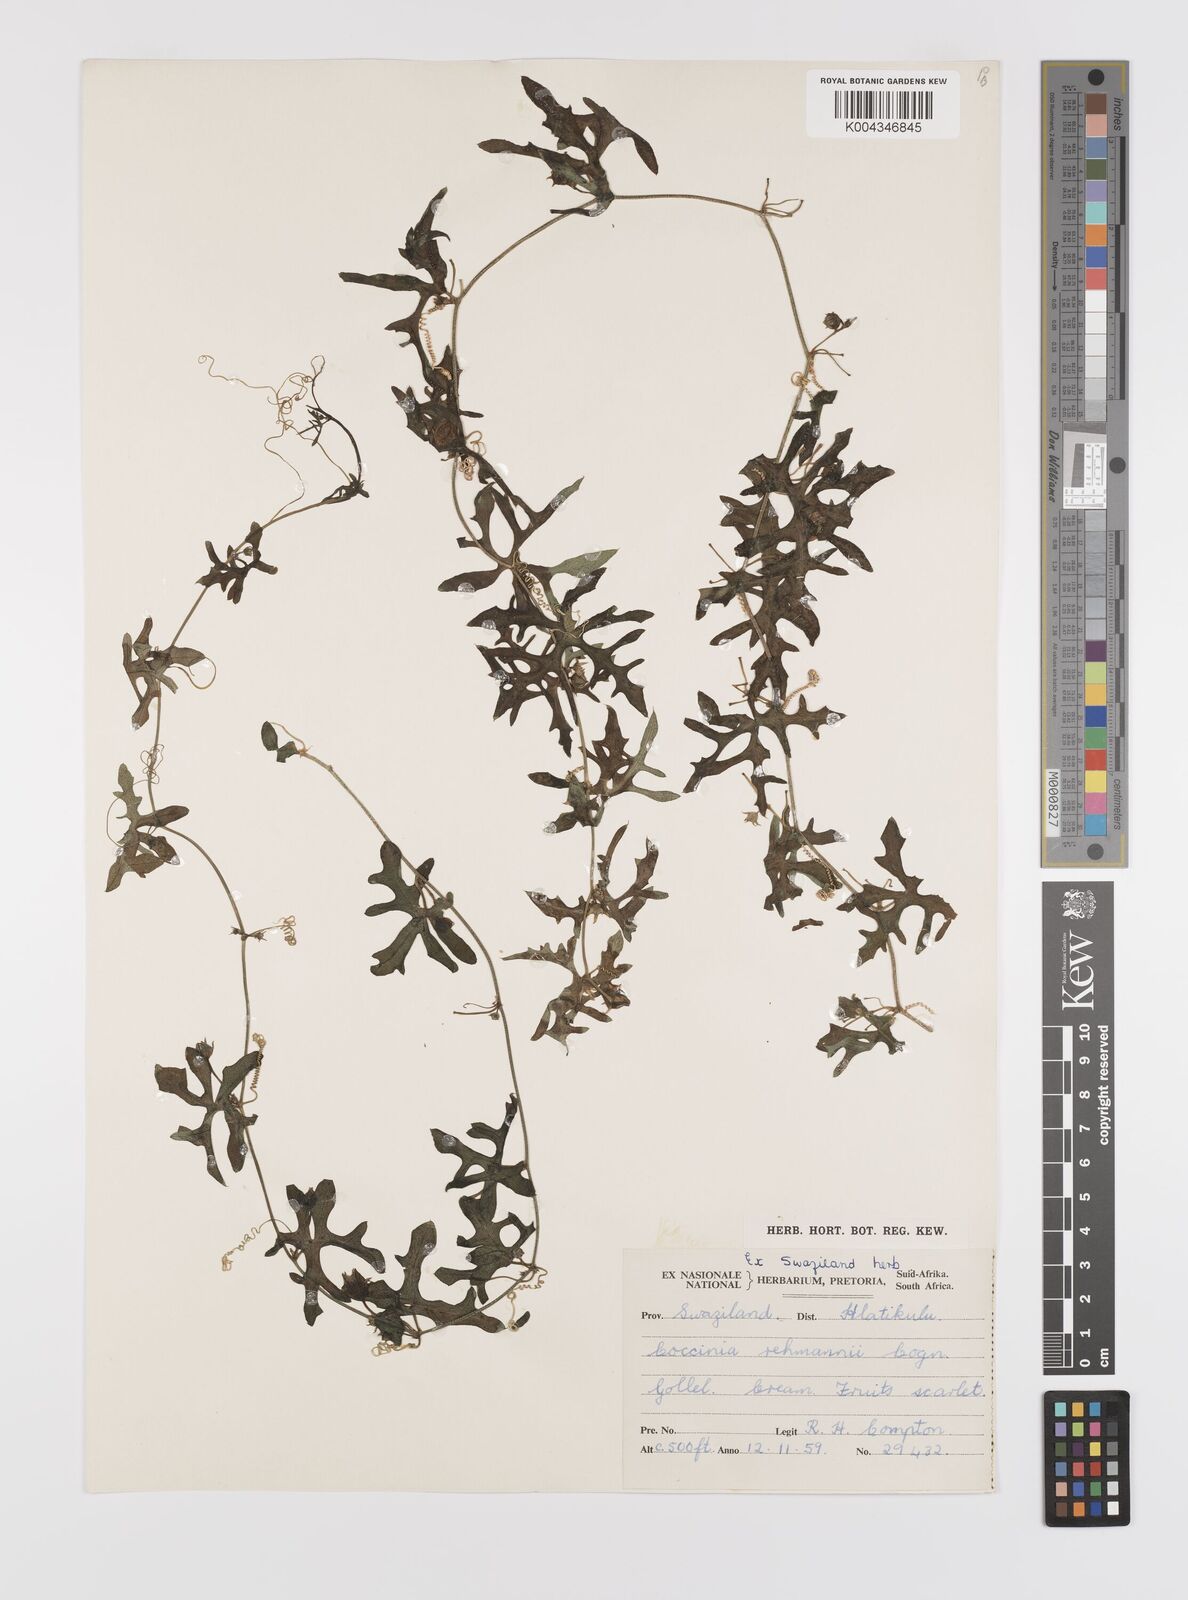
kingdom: Plantae
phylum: Tracheophyta
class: Magnoliopsida
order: Cucurbitales
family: Cucurbitaceae
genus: Coccinia
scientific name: Coccinia rehmannii
